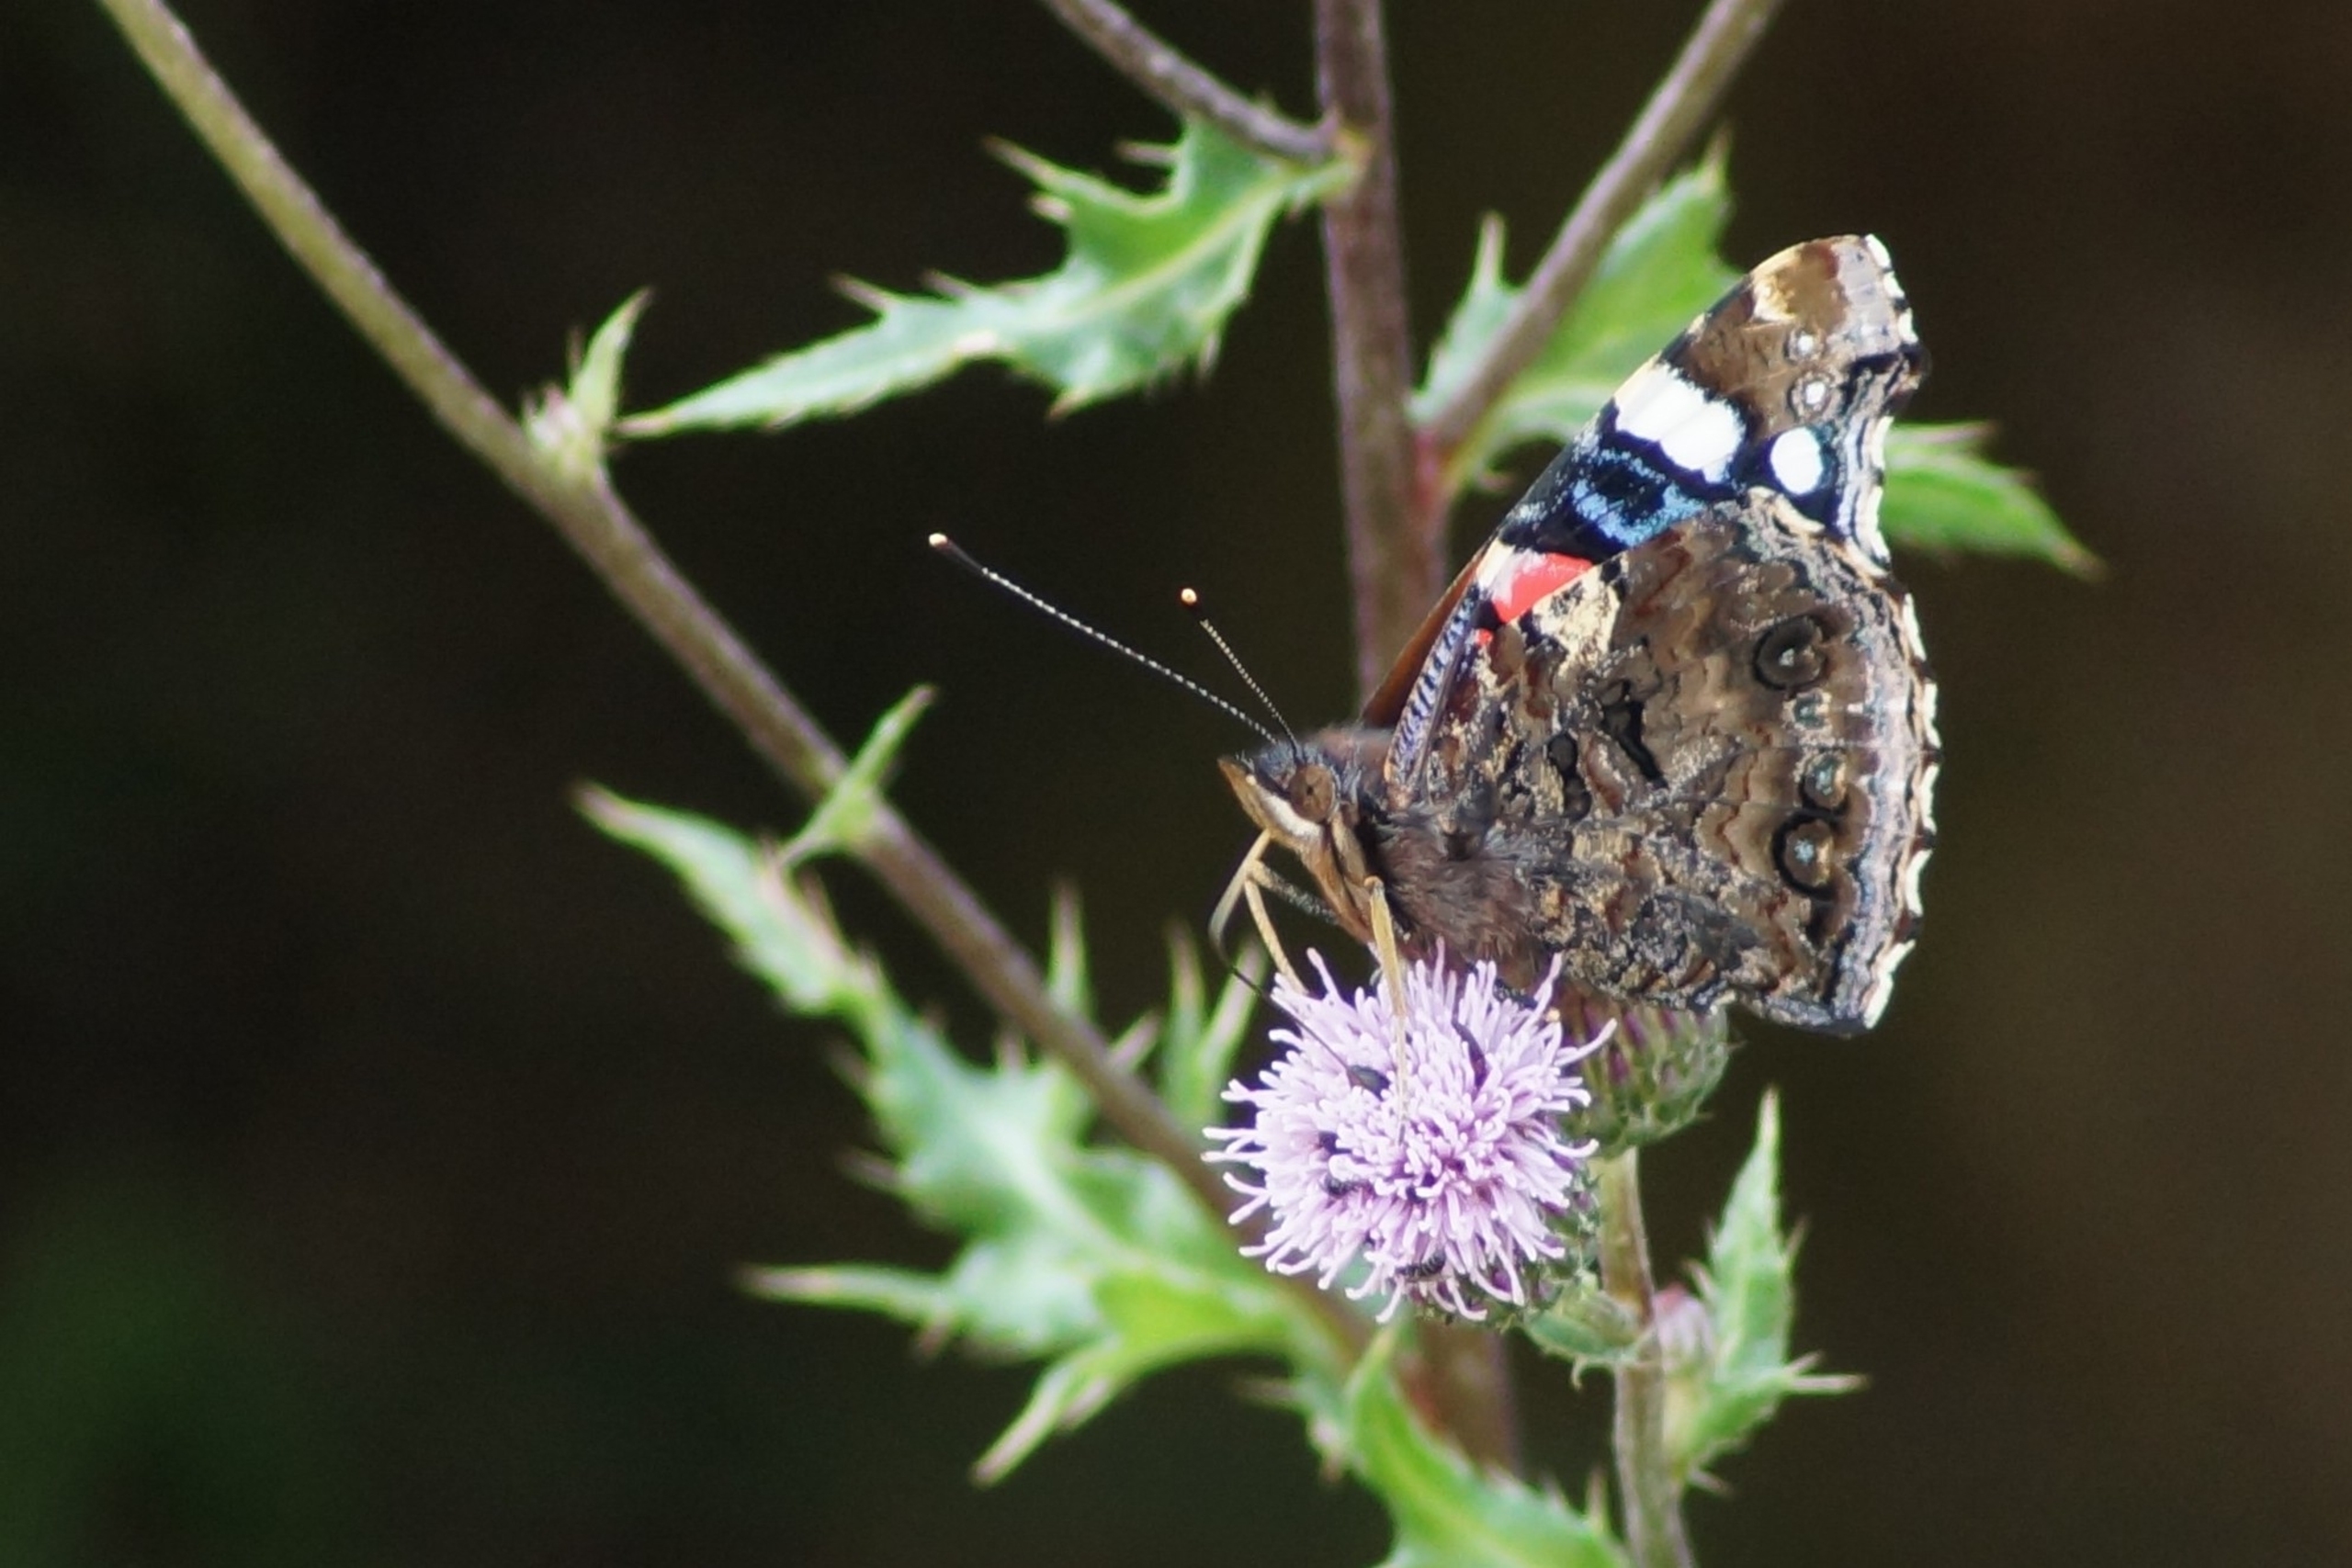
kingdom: Animalia
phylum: Arthropoda
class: Insecta
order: Lepidoptera
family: Nymphalidae
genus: Vanessa
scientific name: Vanessa atalanta
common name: Admiral
